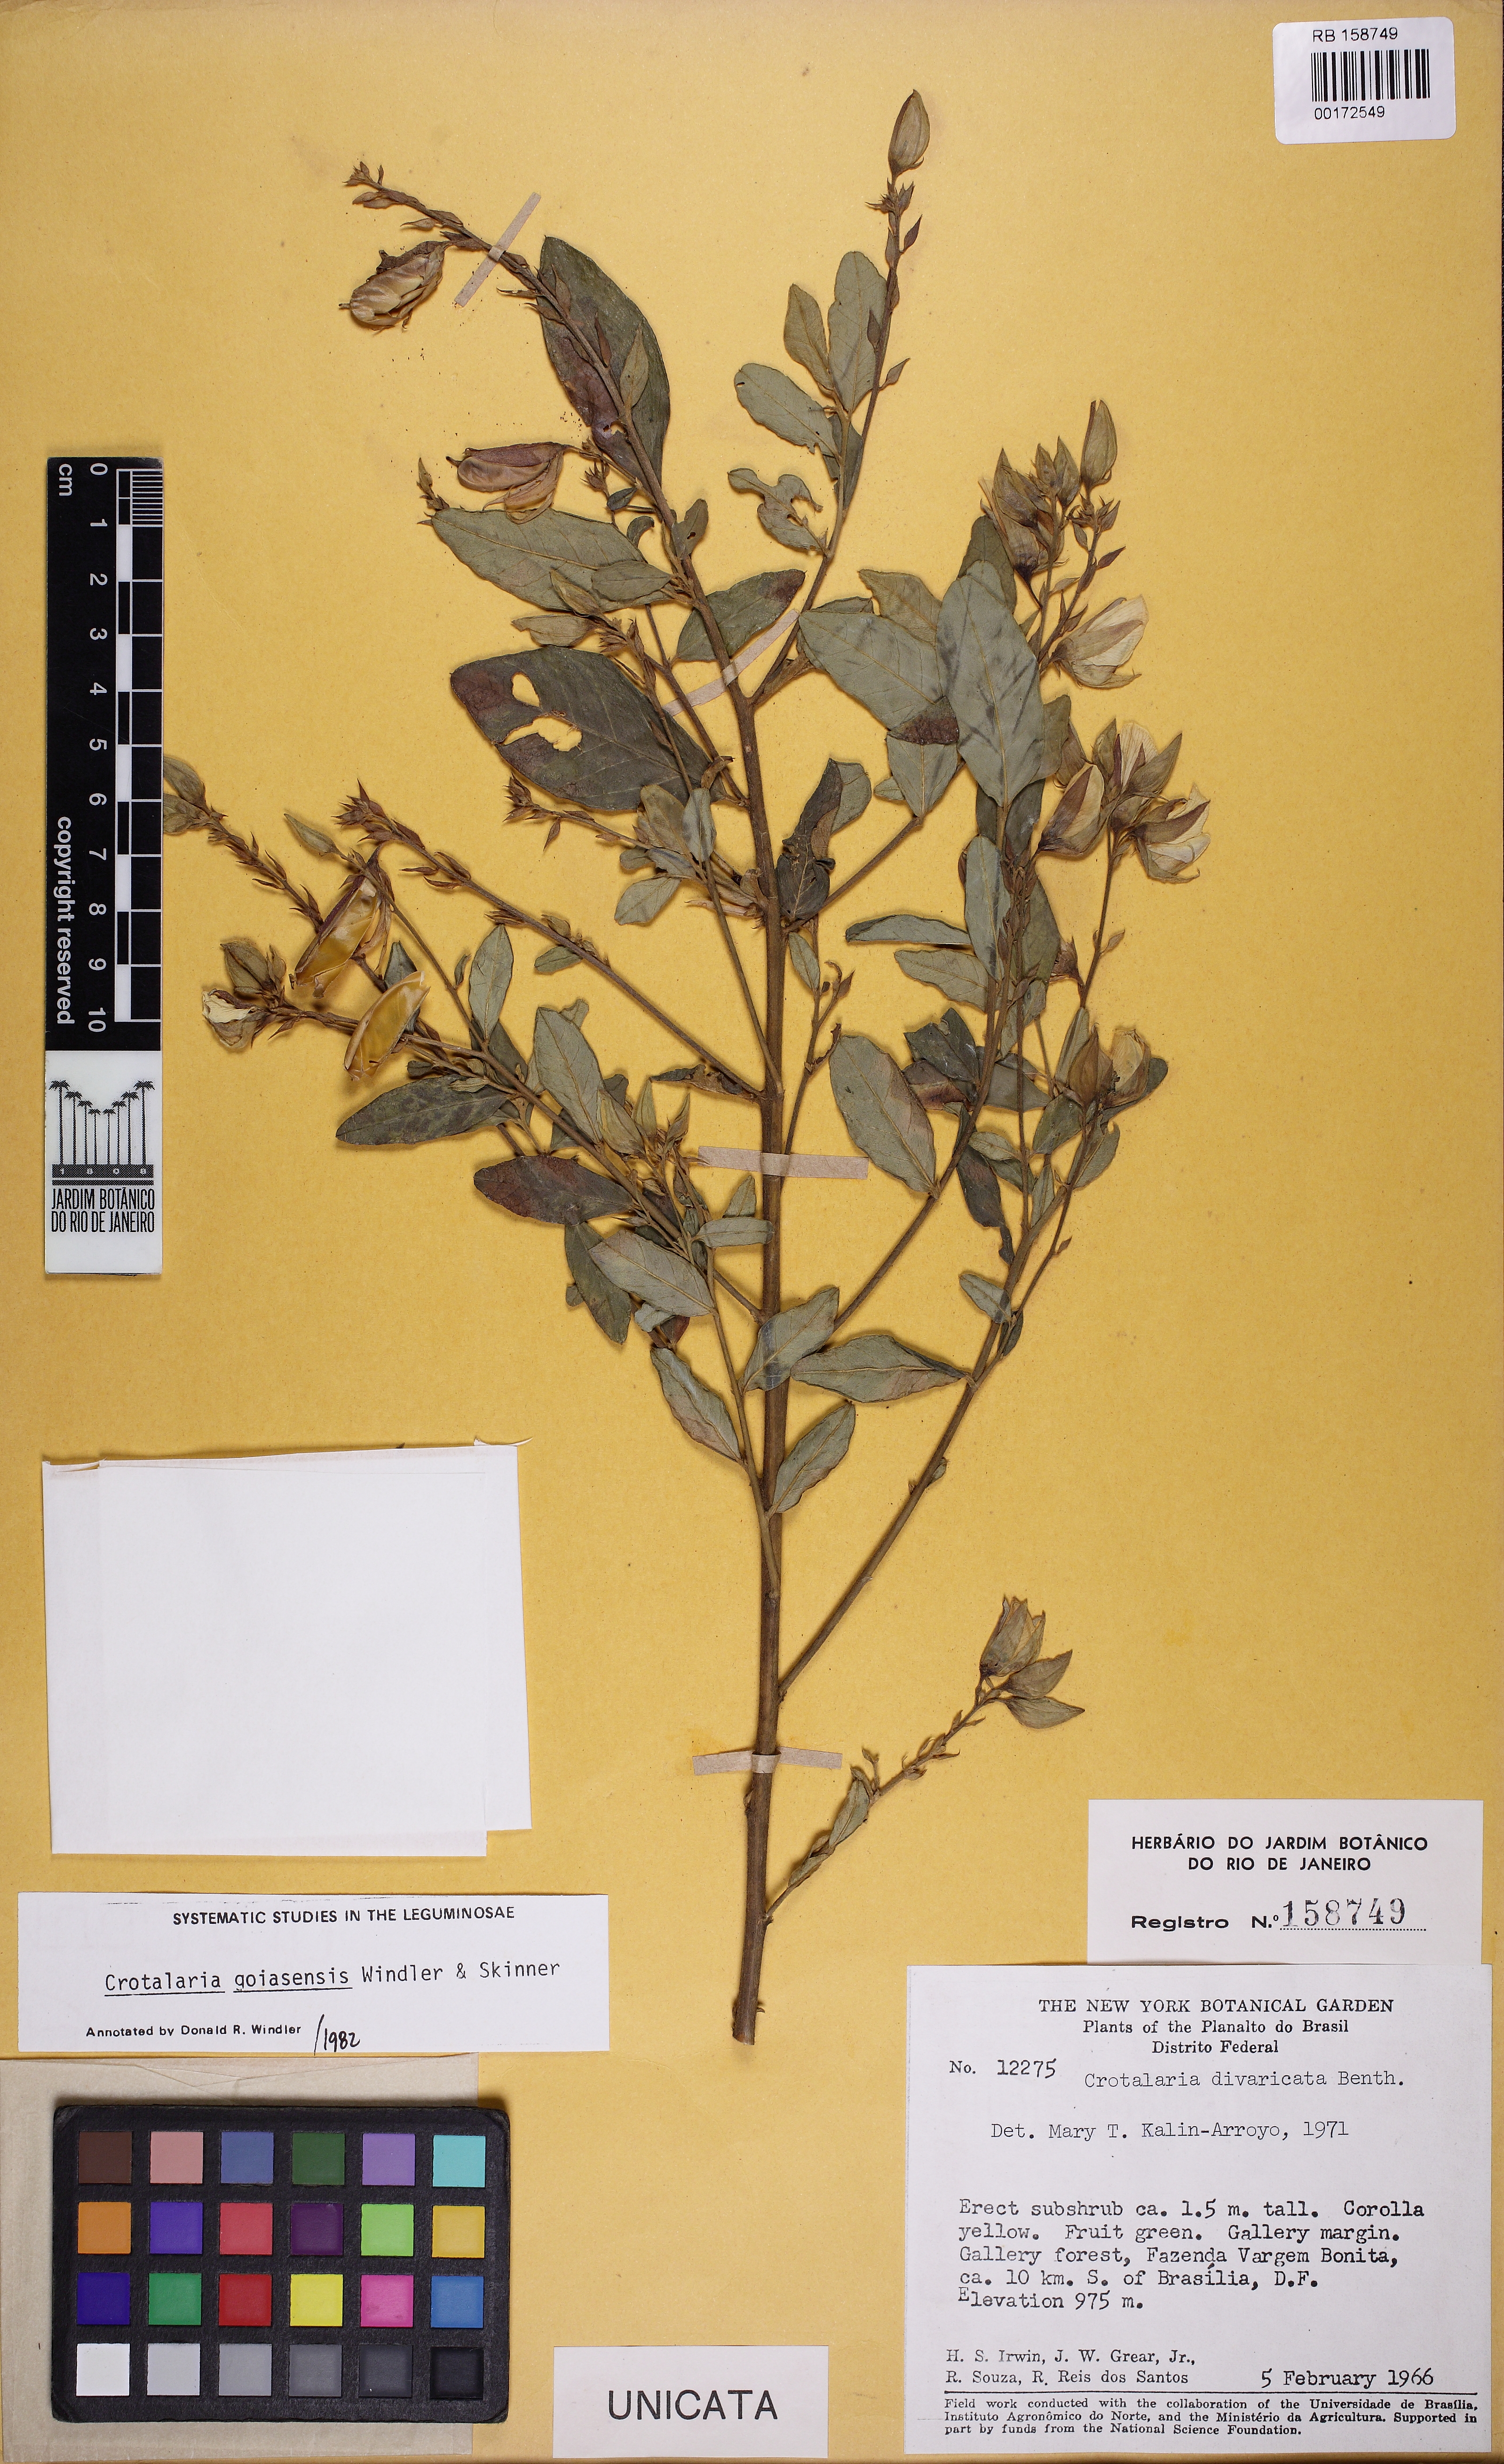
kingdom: Plantae
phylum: Tracheophyta
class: Magnoliopsida
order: Fabales
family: Fabaceae
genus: Crotalaria
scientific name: Crotalaria goiasensis
